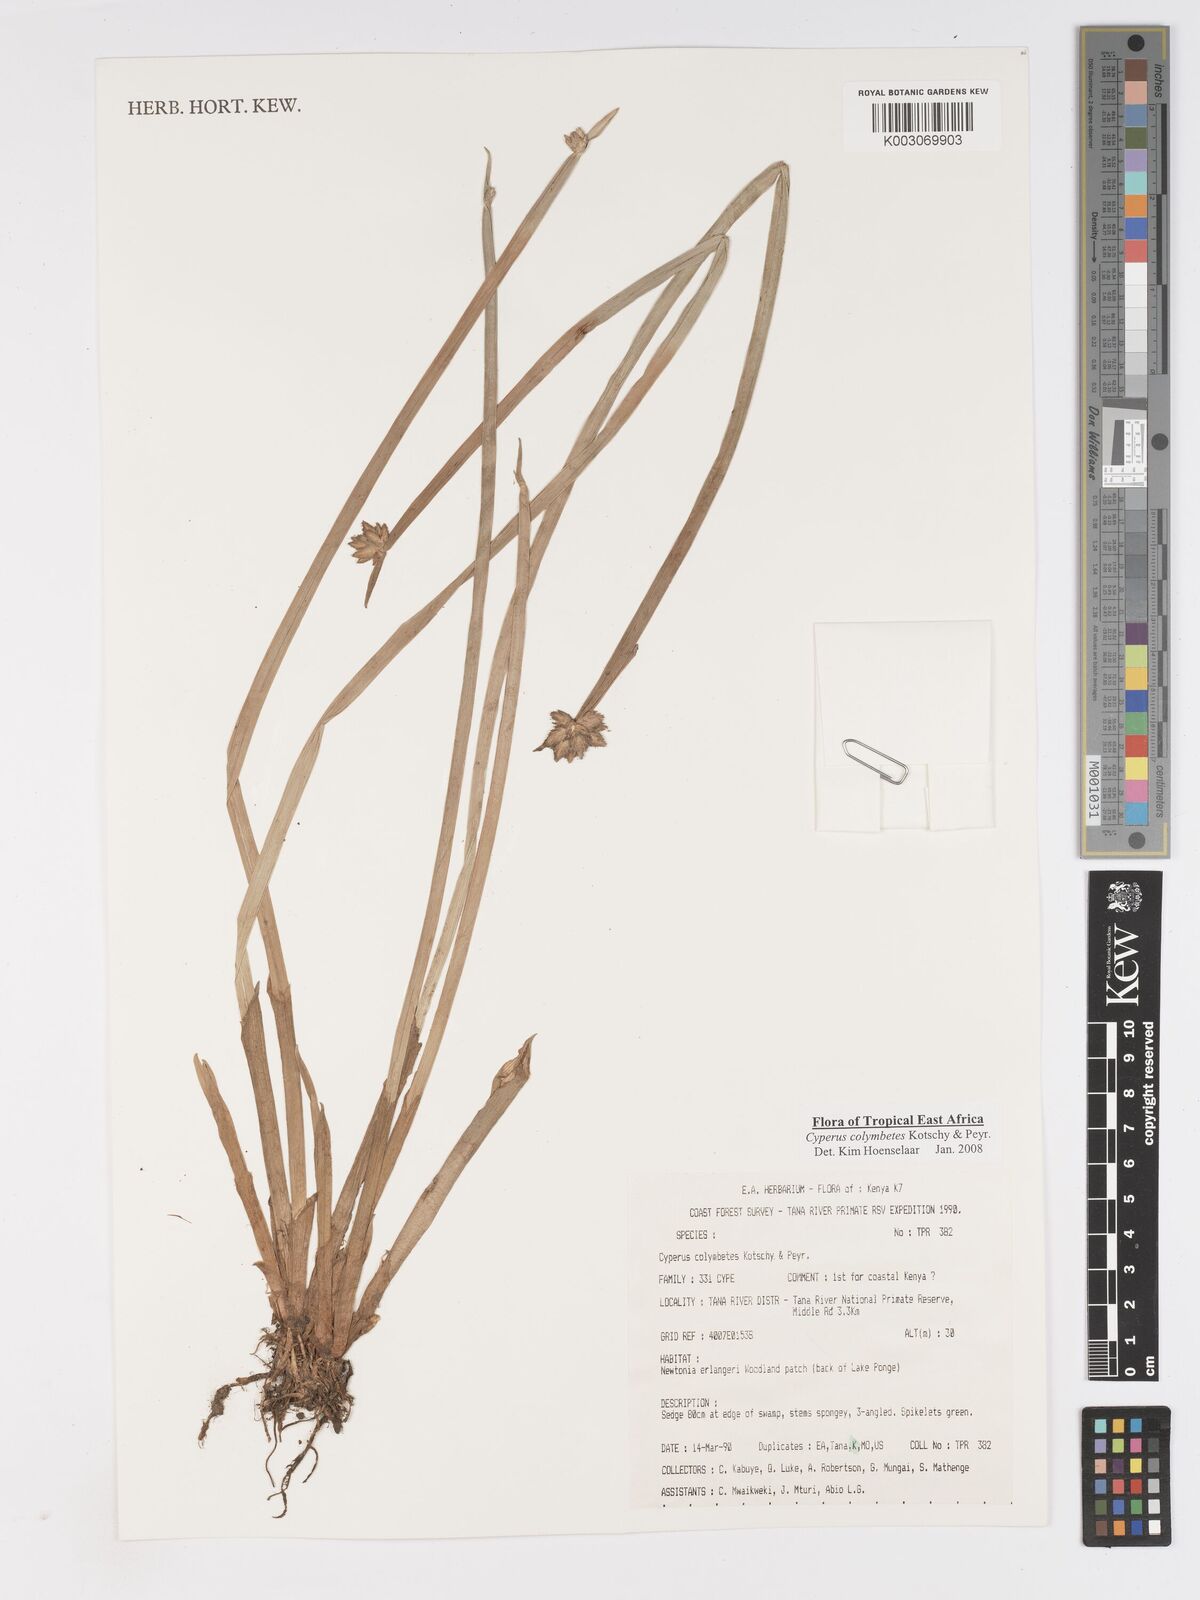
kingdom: Plantae
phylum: Tracheophyta
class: Liliopsida
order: Poales
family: Cyperaceae
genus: Cyperus
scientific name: Cyperus colymbetes
